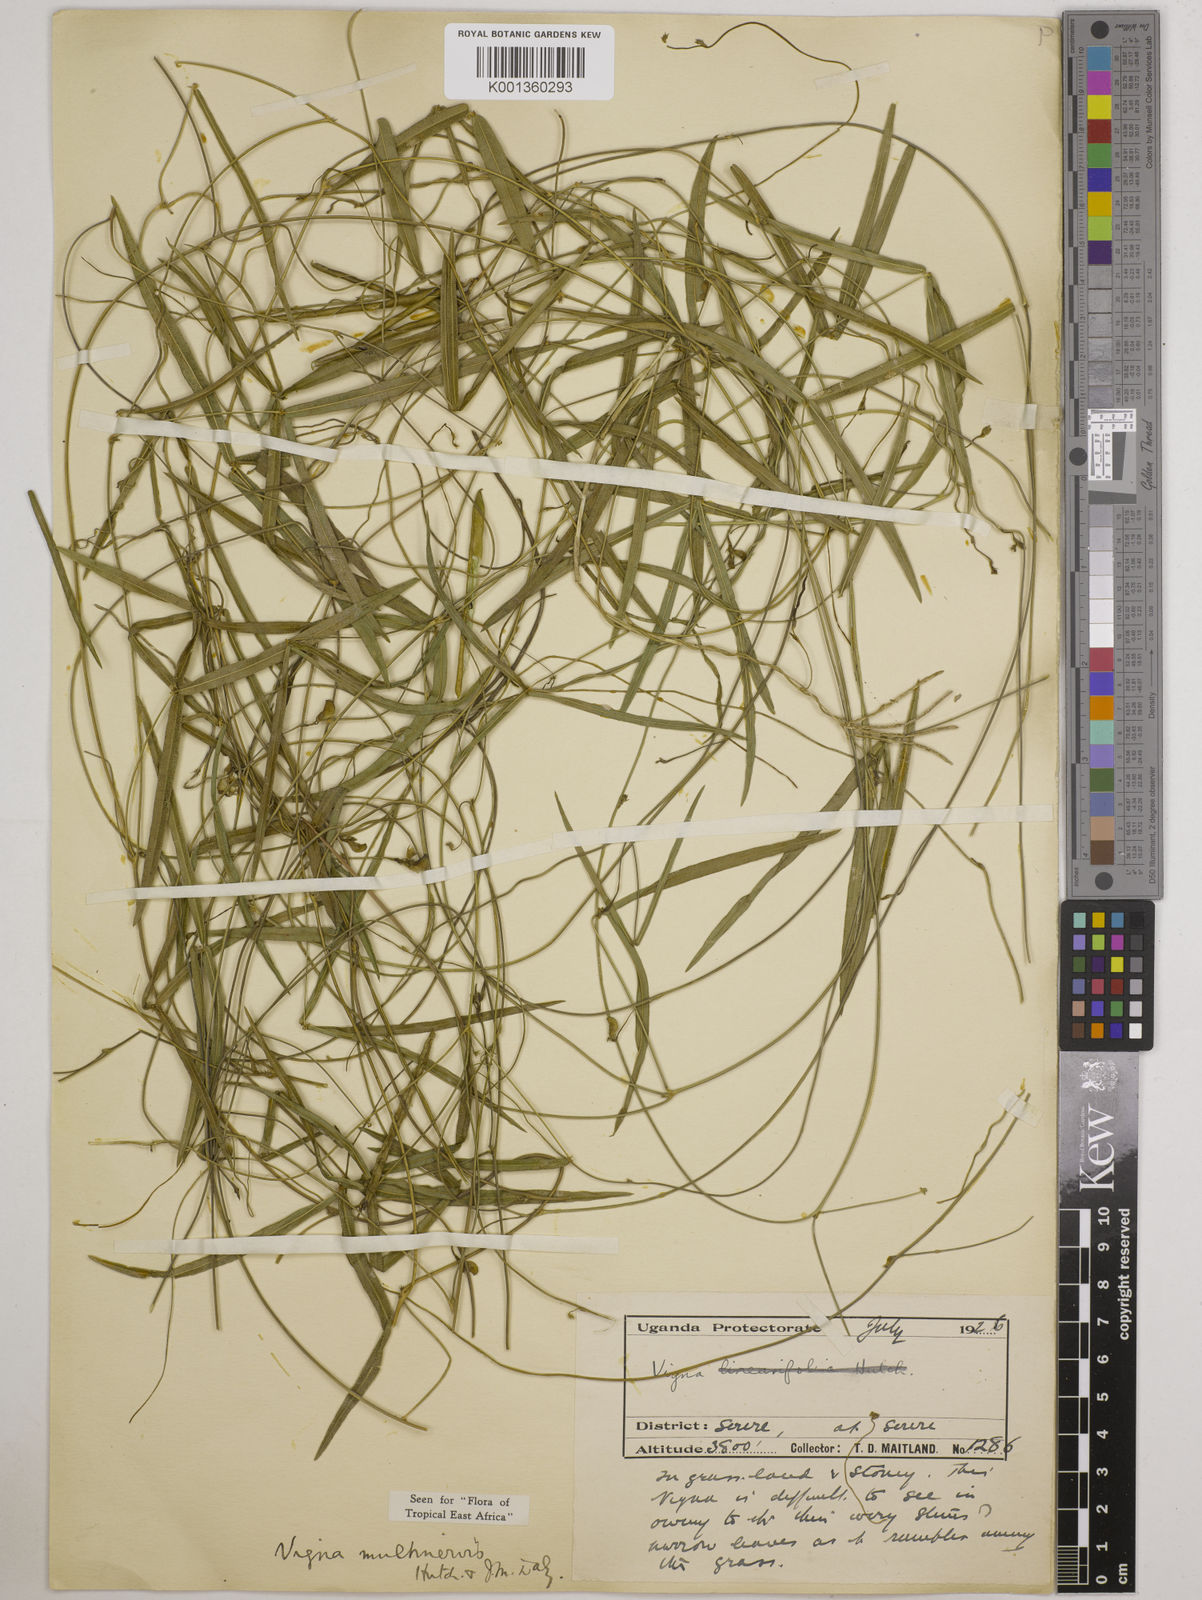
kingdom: Plantae
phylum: Tracheophyta
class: Magnoliopsida
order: Fabales
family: Fabaceae
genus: Vigna
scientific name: Vigna multinervis
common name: Fula-pulaar
